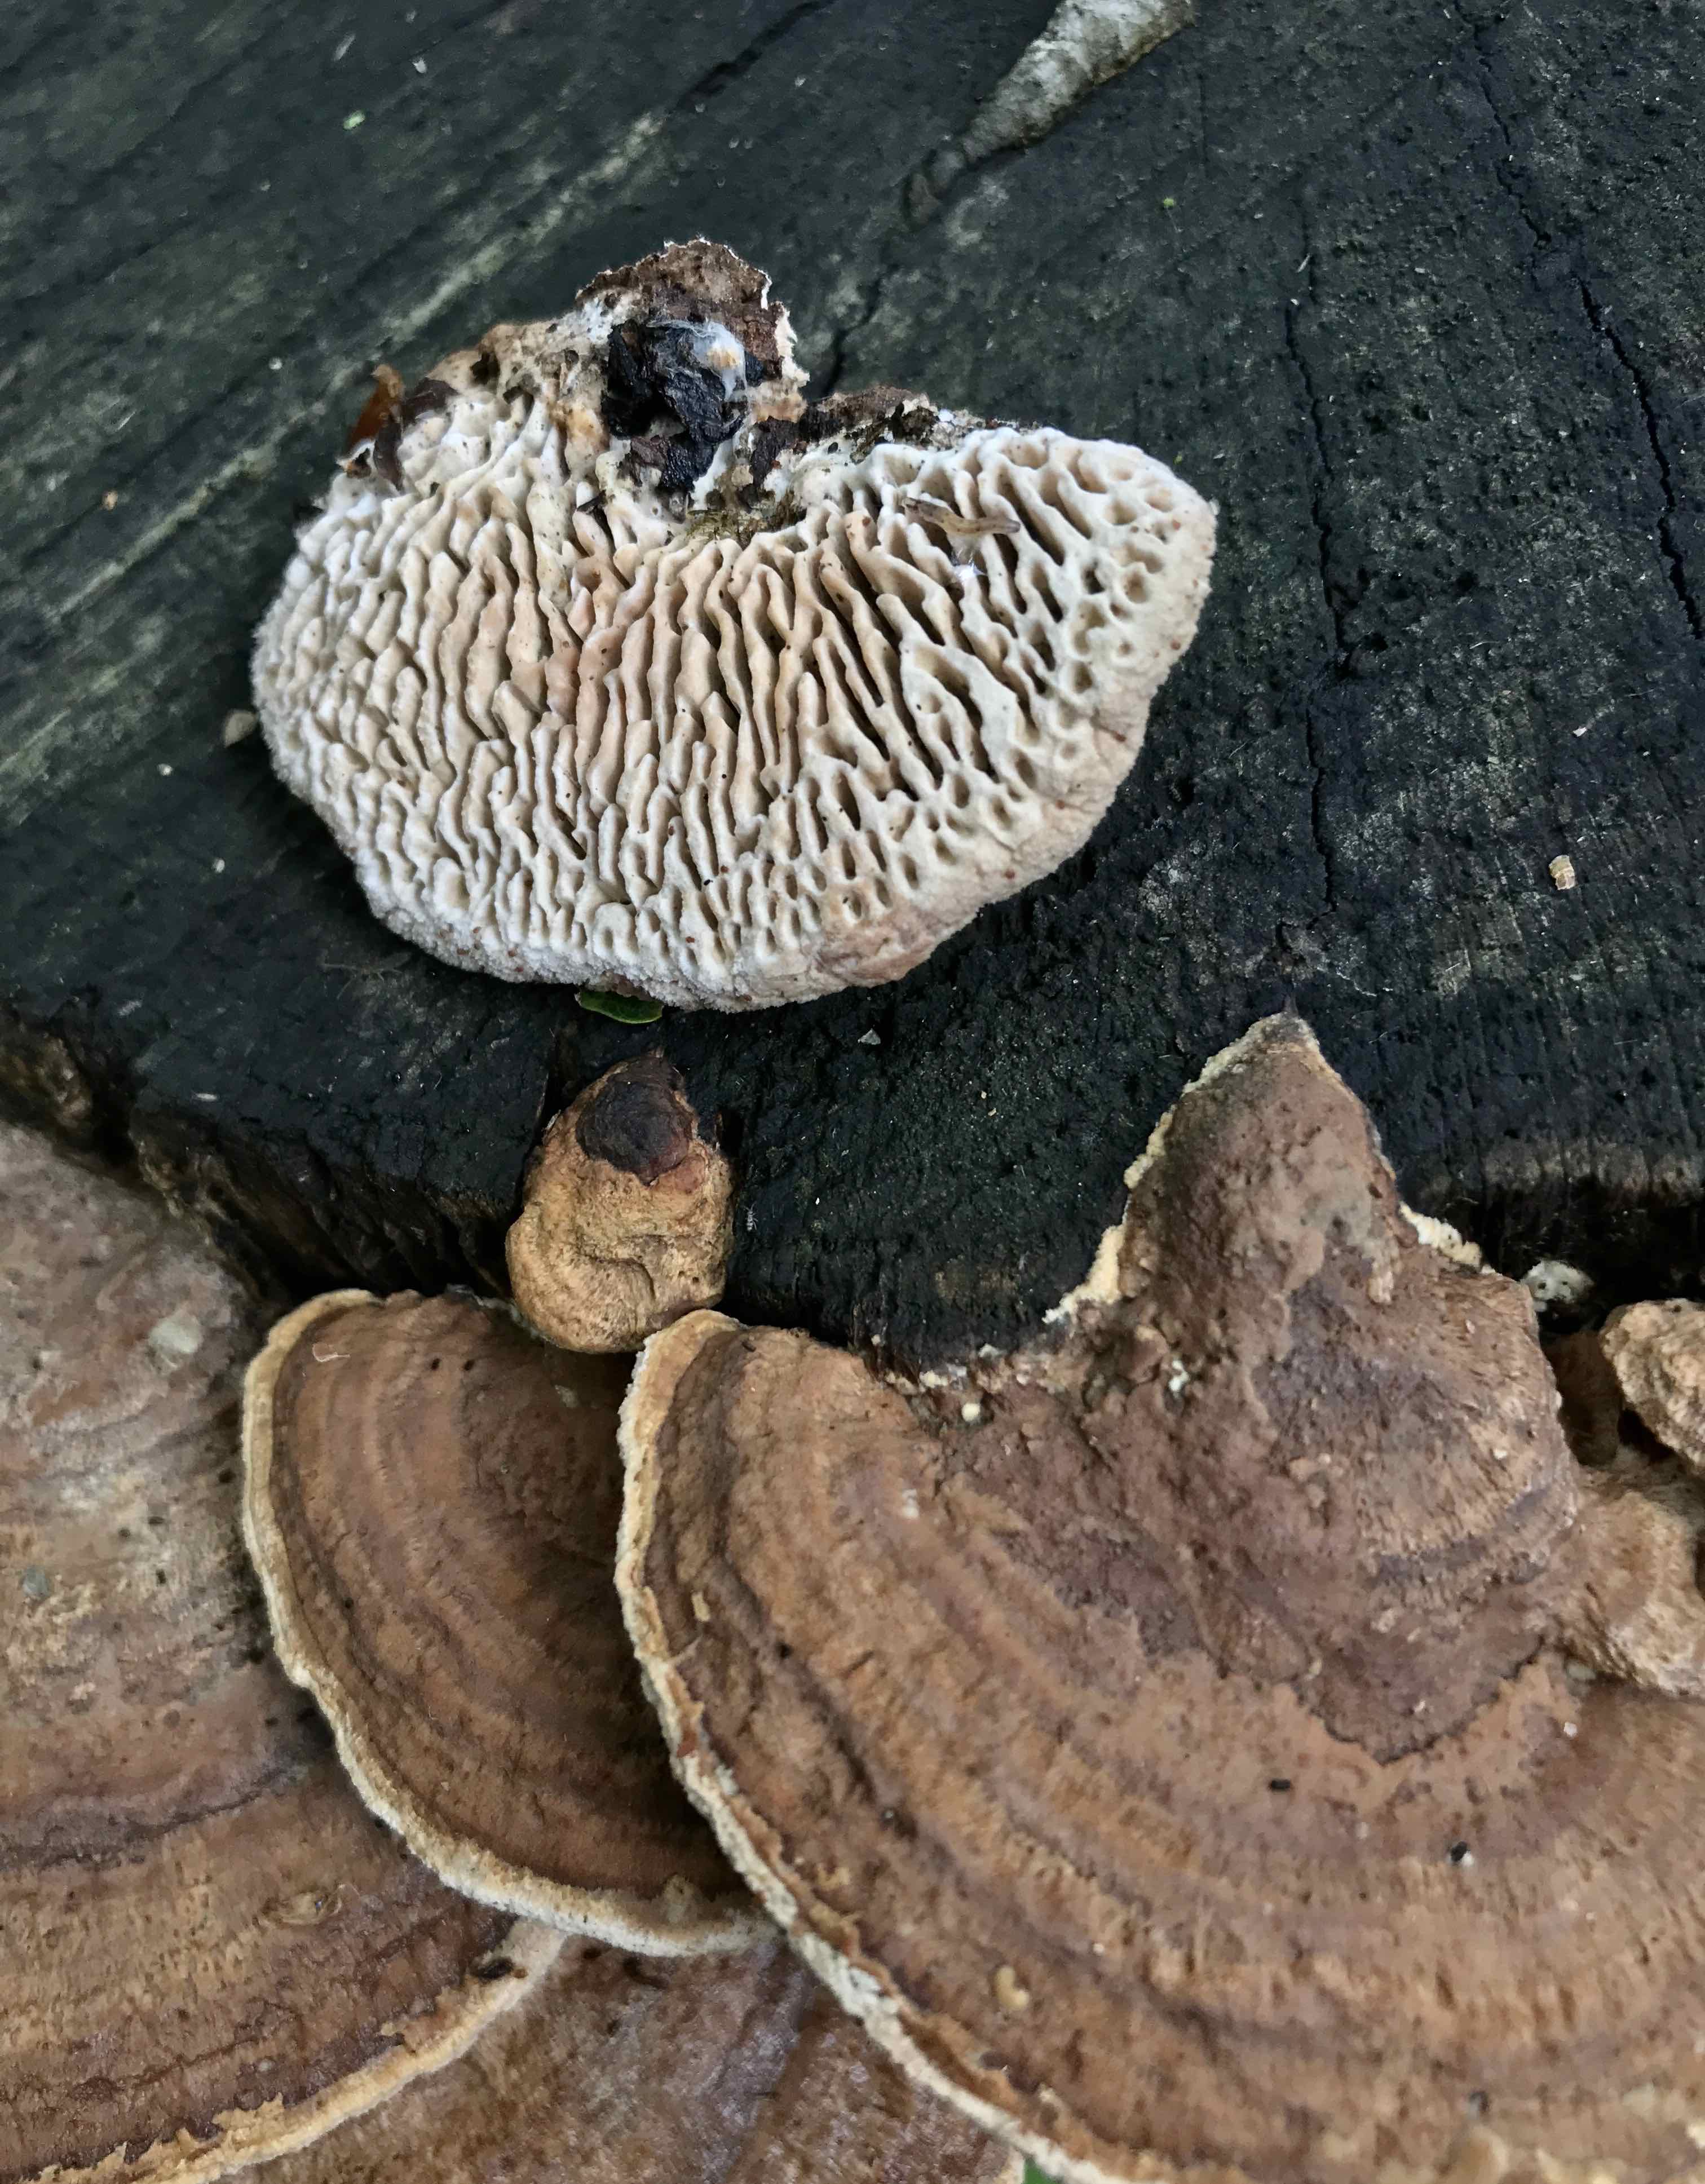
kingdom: Fungi
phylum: Basidiomycota
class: Agaricomycetes
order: Polyporales
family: Fomitopsidaceae
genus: Daedalea
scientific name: Daedalea quercina
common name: ege-labyrintsvamp
